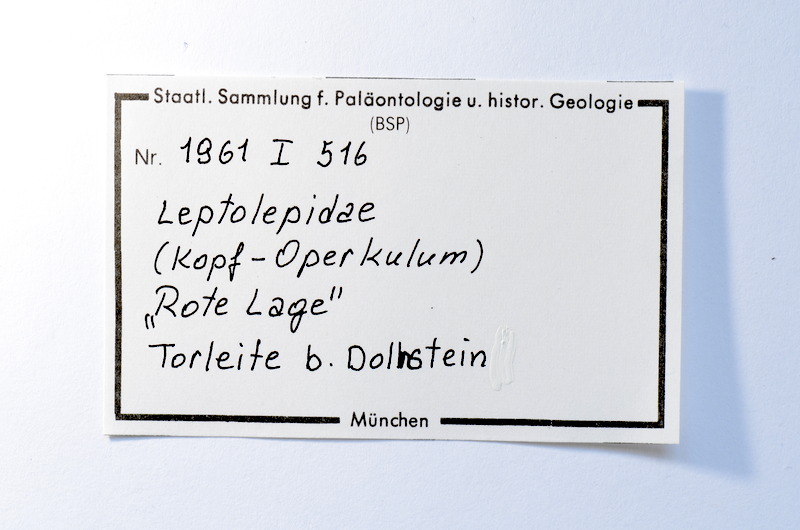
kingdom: Animalia
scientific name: Animalia
